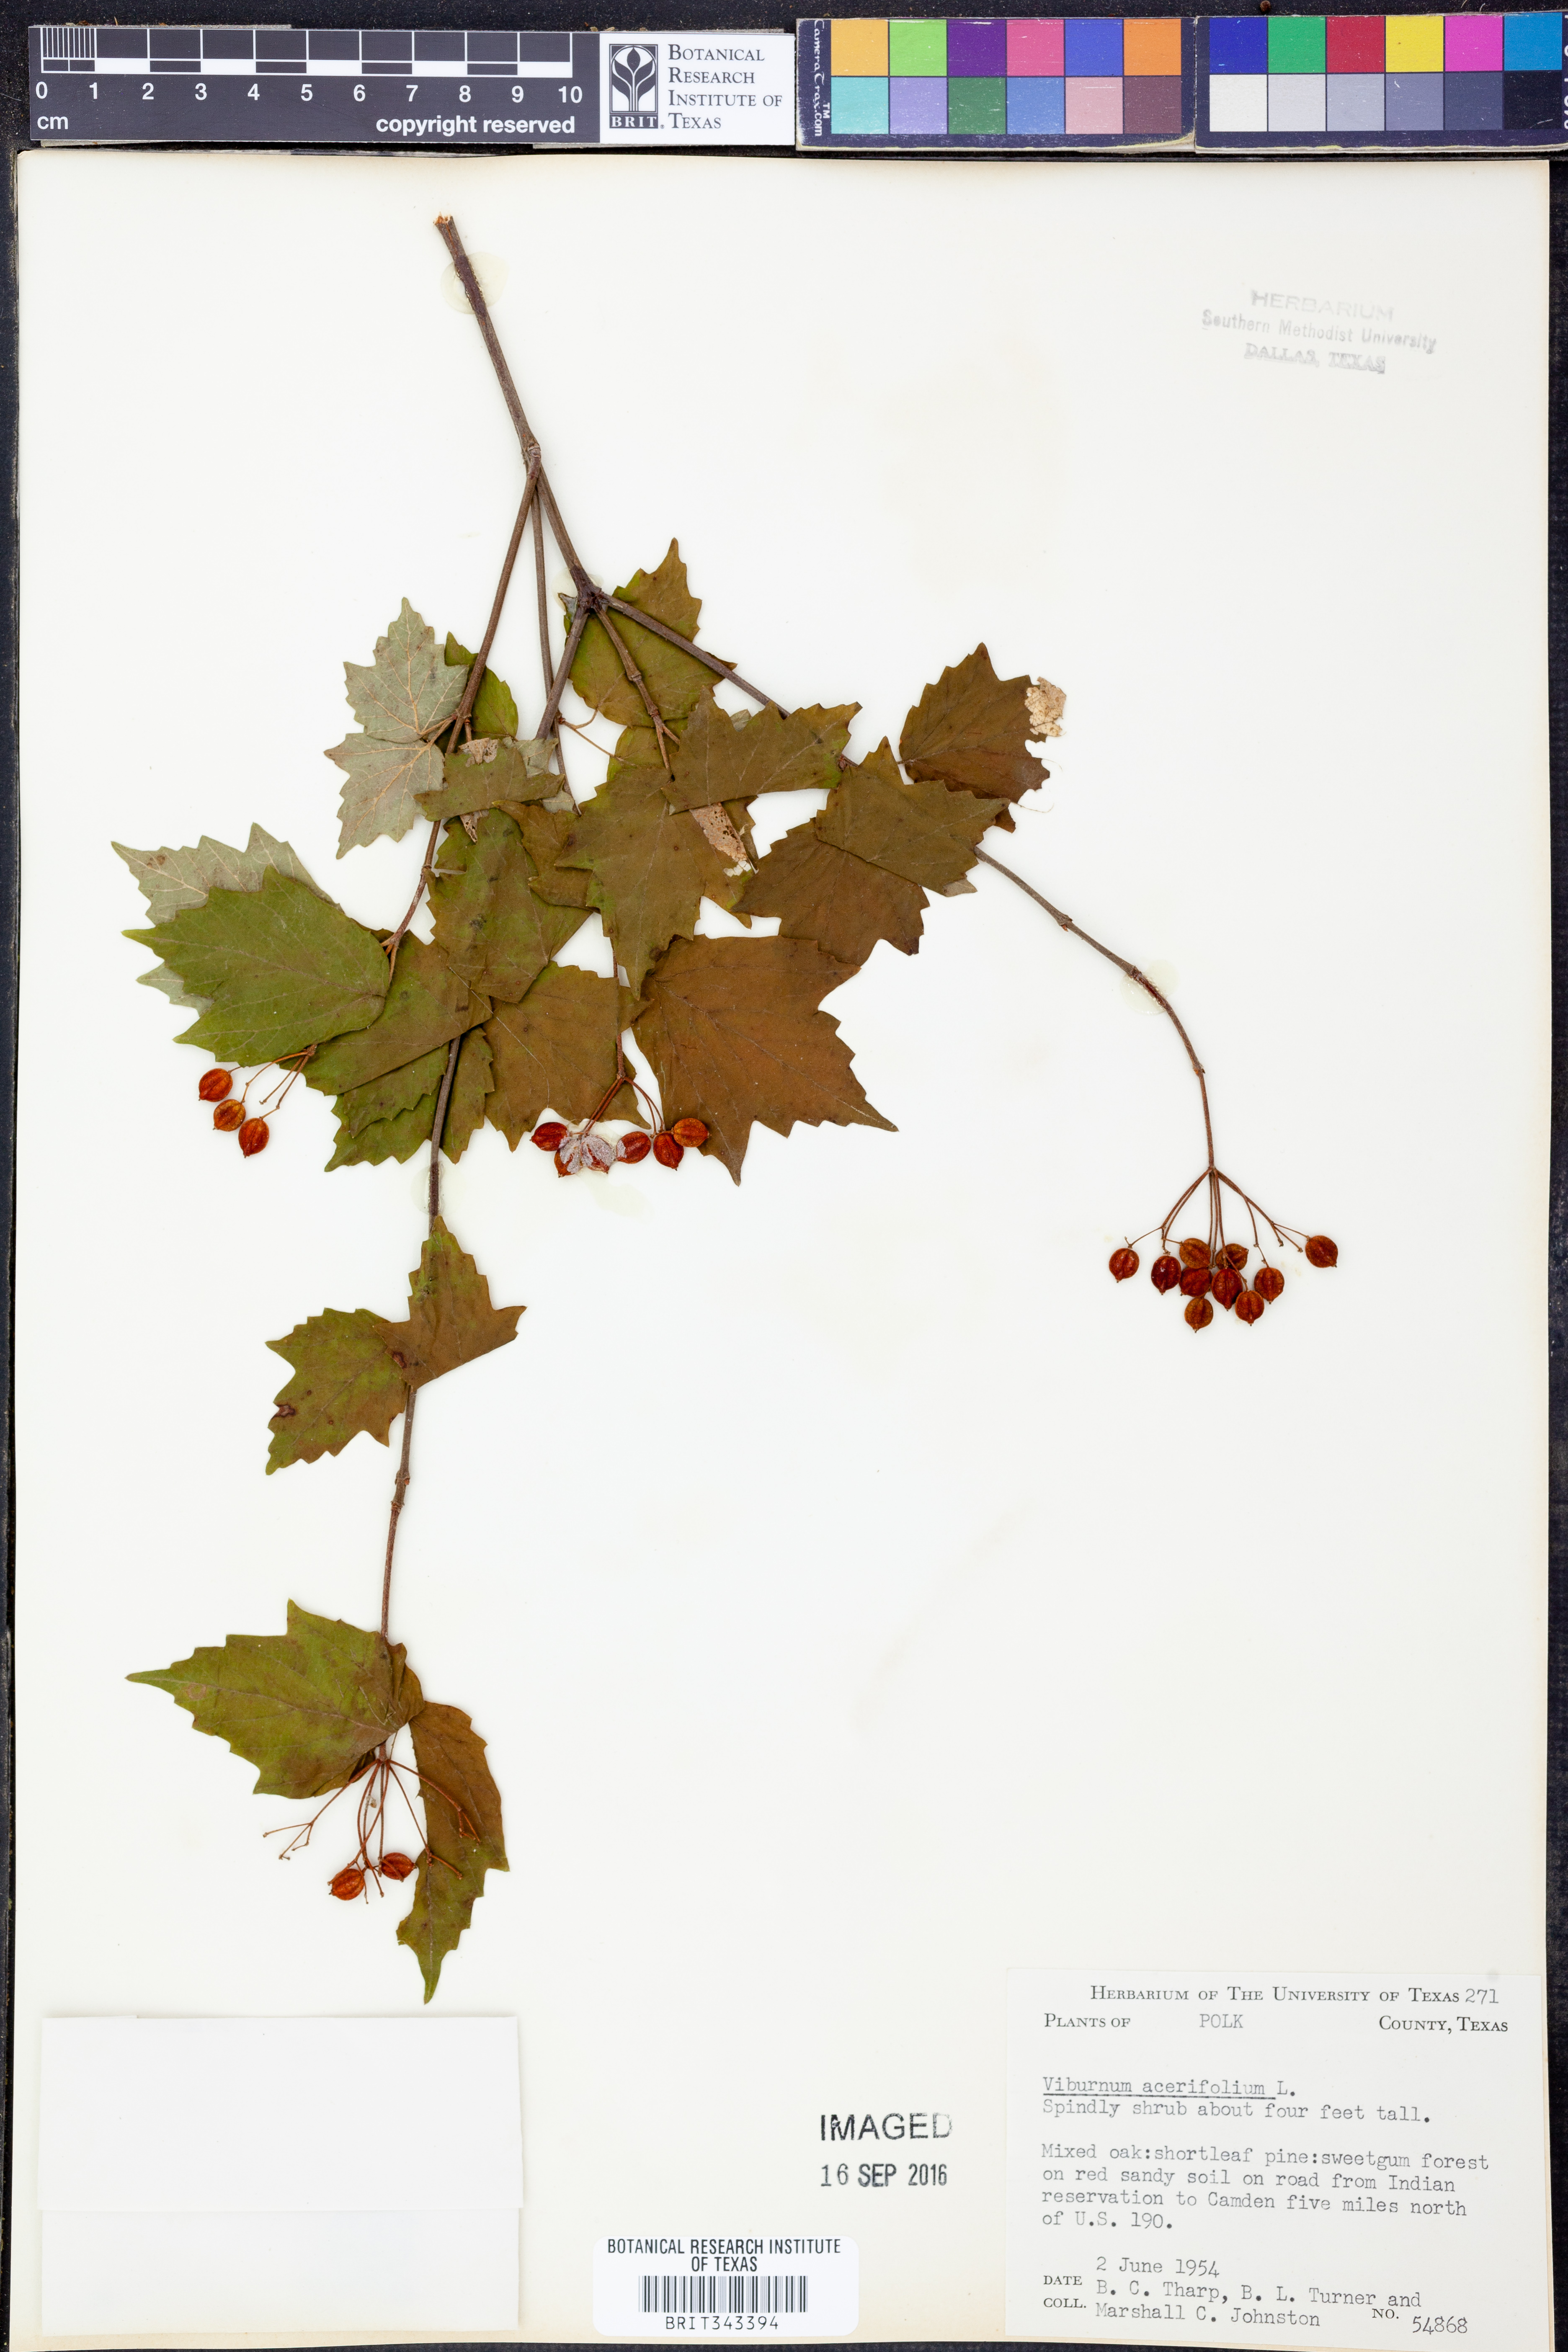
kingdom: Plantae
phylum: Tracheophyta
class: Magnoliopsida
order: Dipsacales
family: Viburnaceae
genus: Viburnum
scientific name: Viburnum acerifolium
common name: Dockmackie
